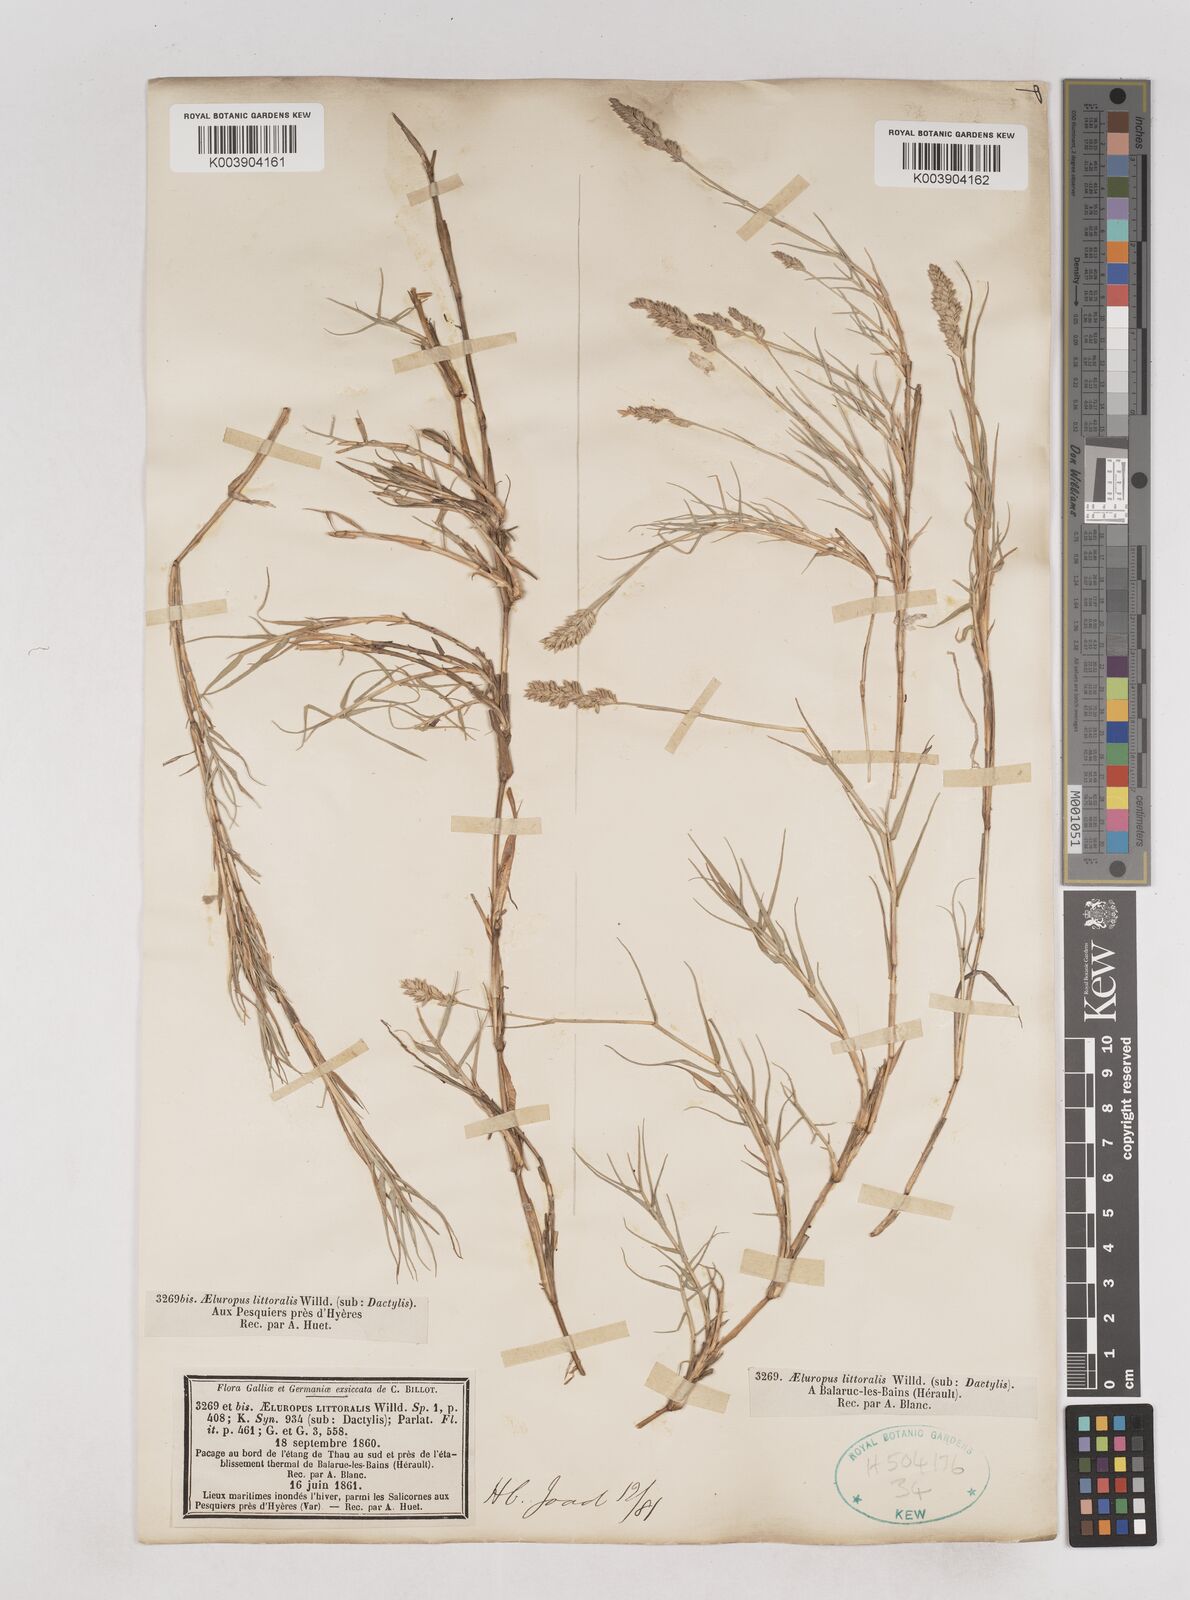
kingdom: Plantae
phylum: Tracheophyta
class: Liliopsida
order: Poales
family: Poaceae
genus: Aeluropus
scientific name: Aeluropus littoralis
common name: Indian walnut
